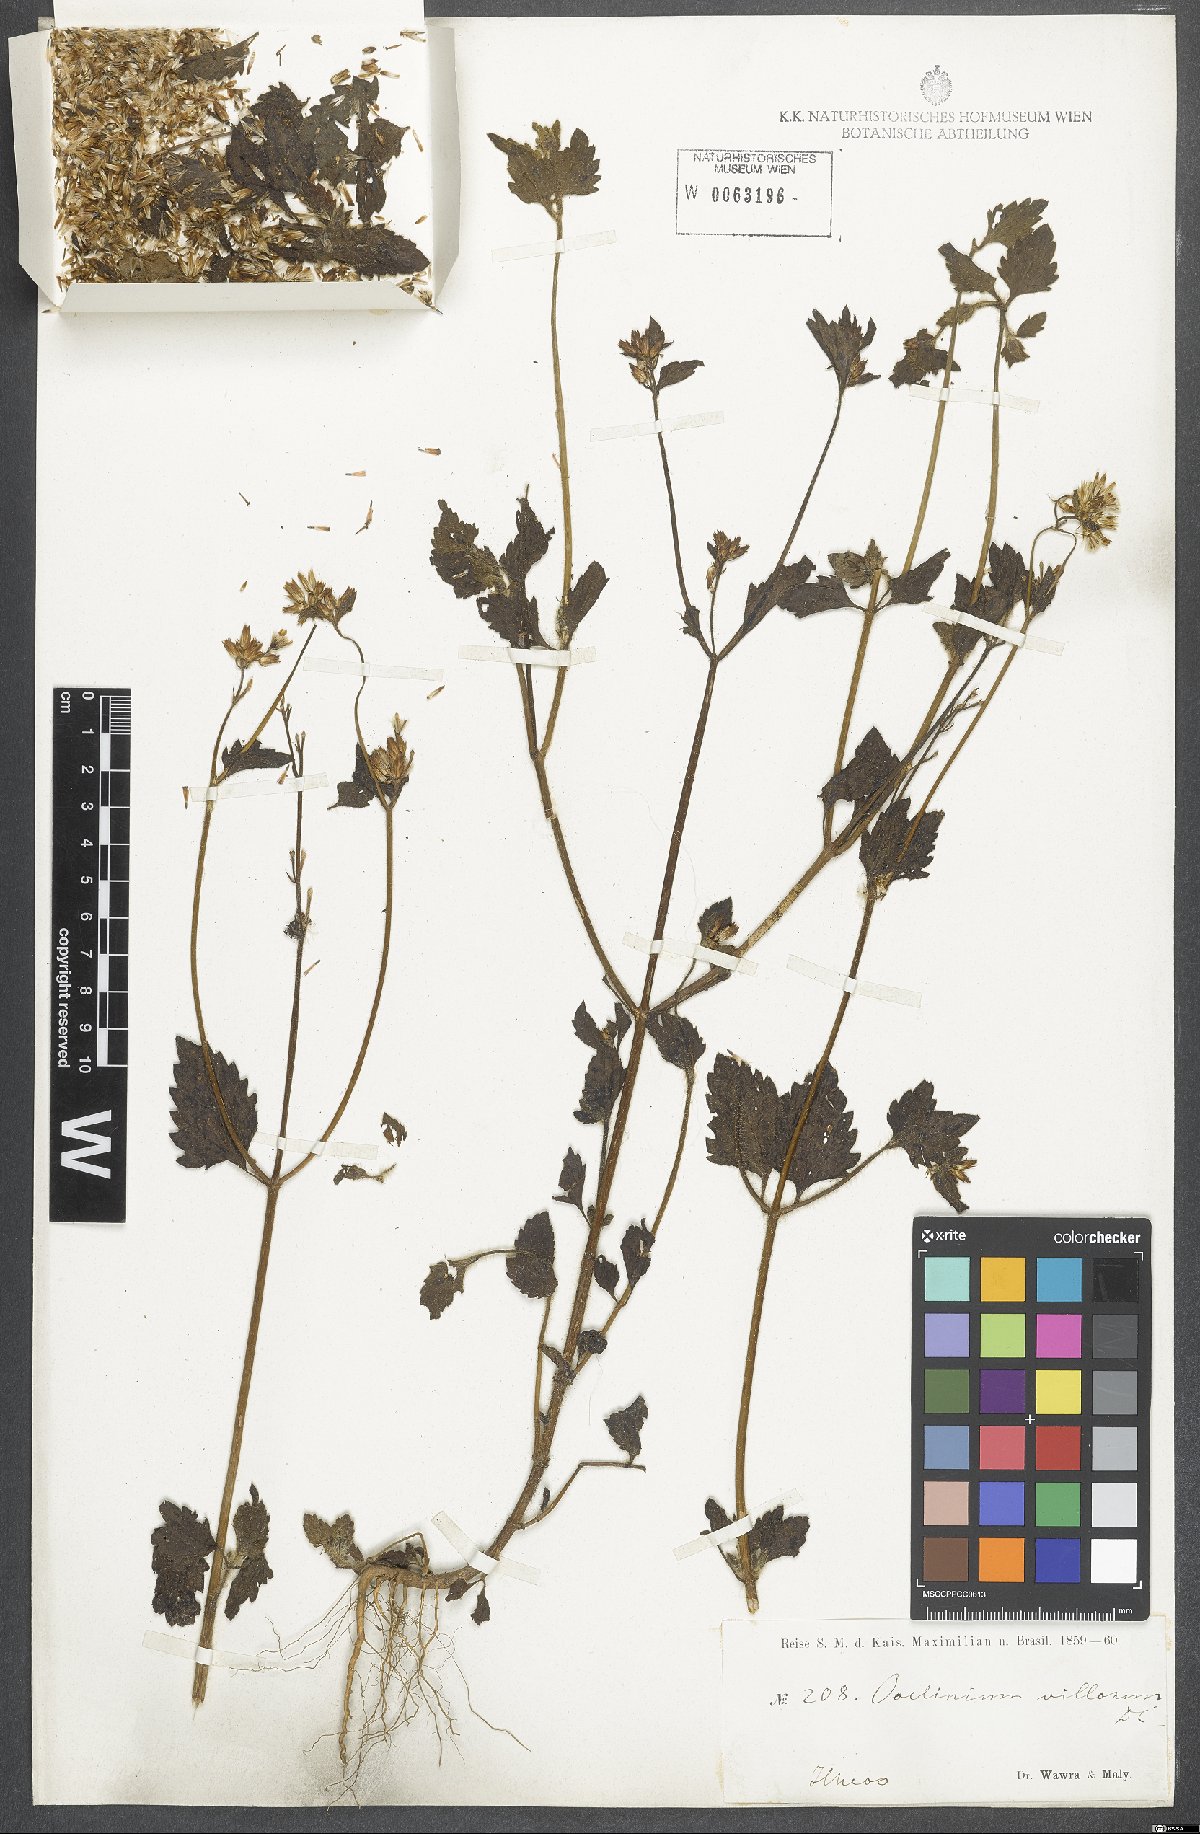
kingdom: Plantae
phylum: Tracheophyta
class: Magnoliopsida
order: Asterales
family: Asteraceae
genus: Ageratina
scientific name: Ageratina altissima
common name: White snakeroot
